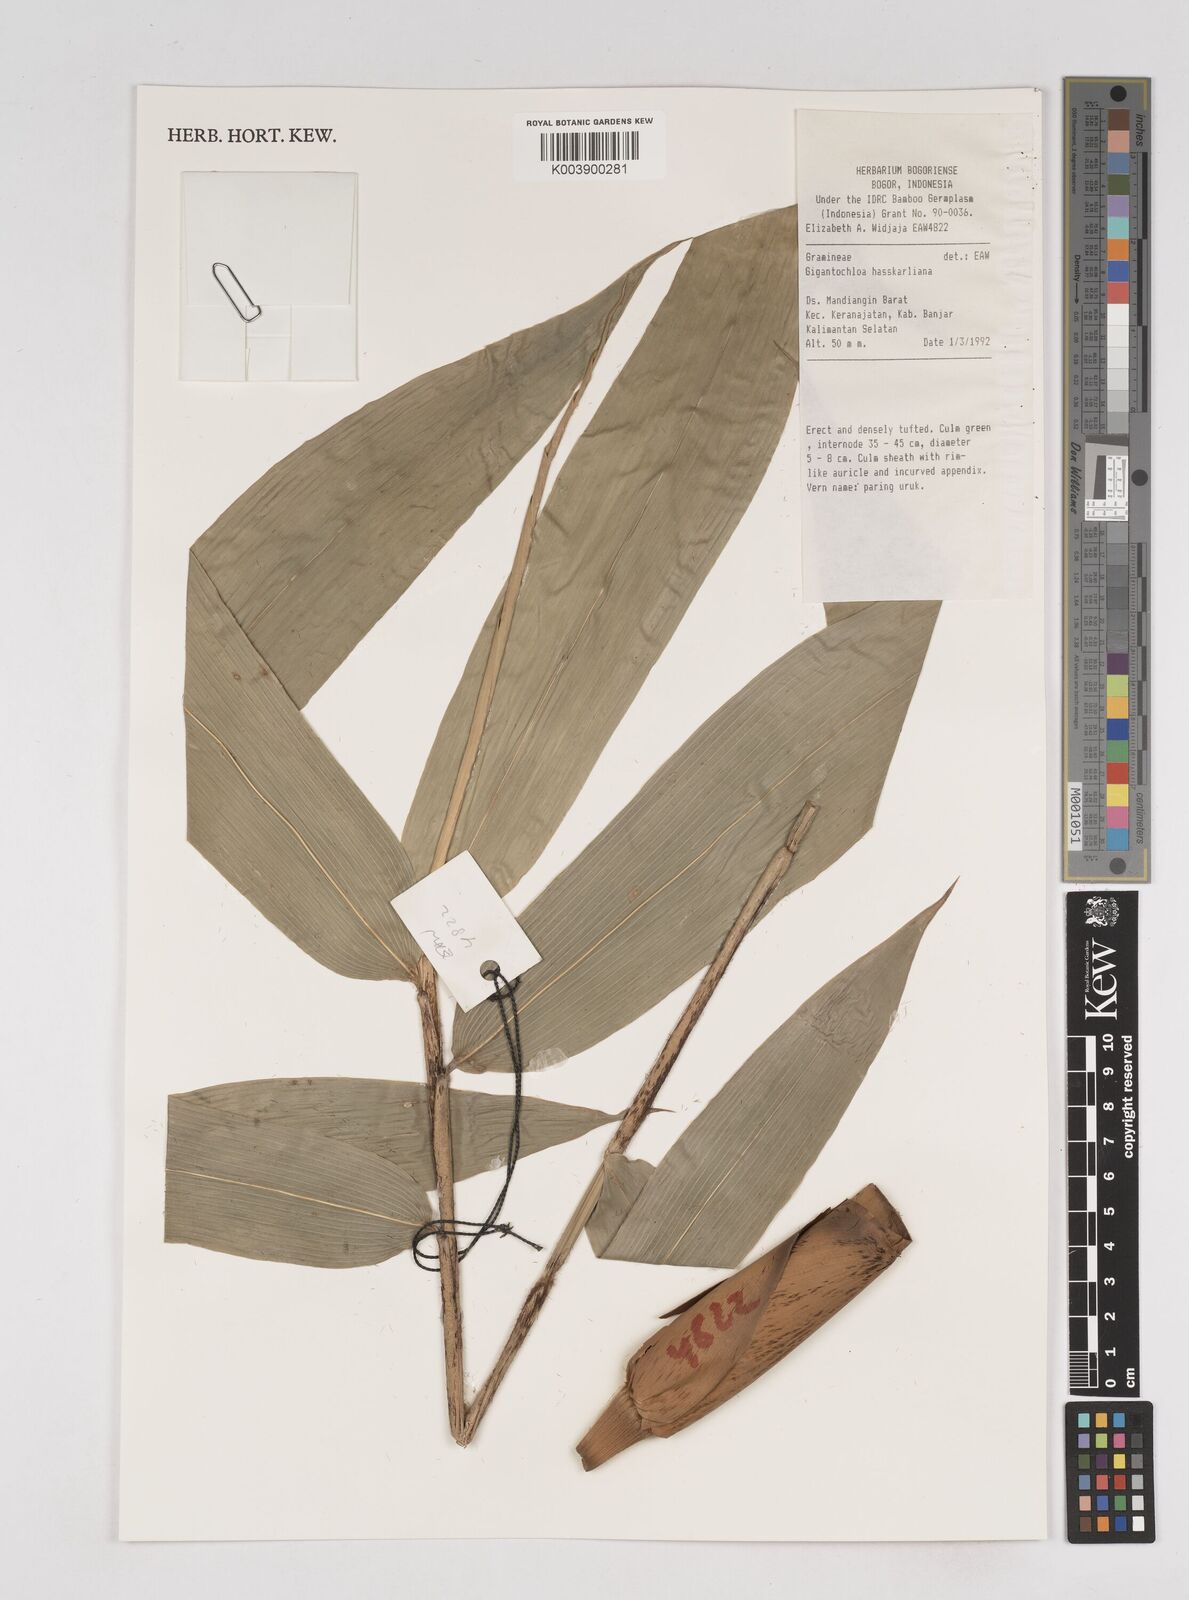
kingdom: Plantae
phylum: Tracheophyta
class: Liliopsida
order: Poales
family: Poaceae
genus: Gigantochloa
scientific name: Gigantochloa hasskarliana
